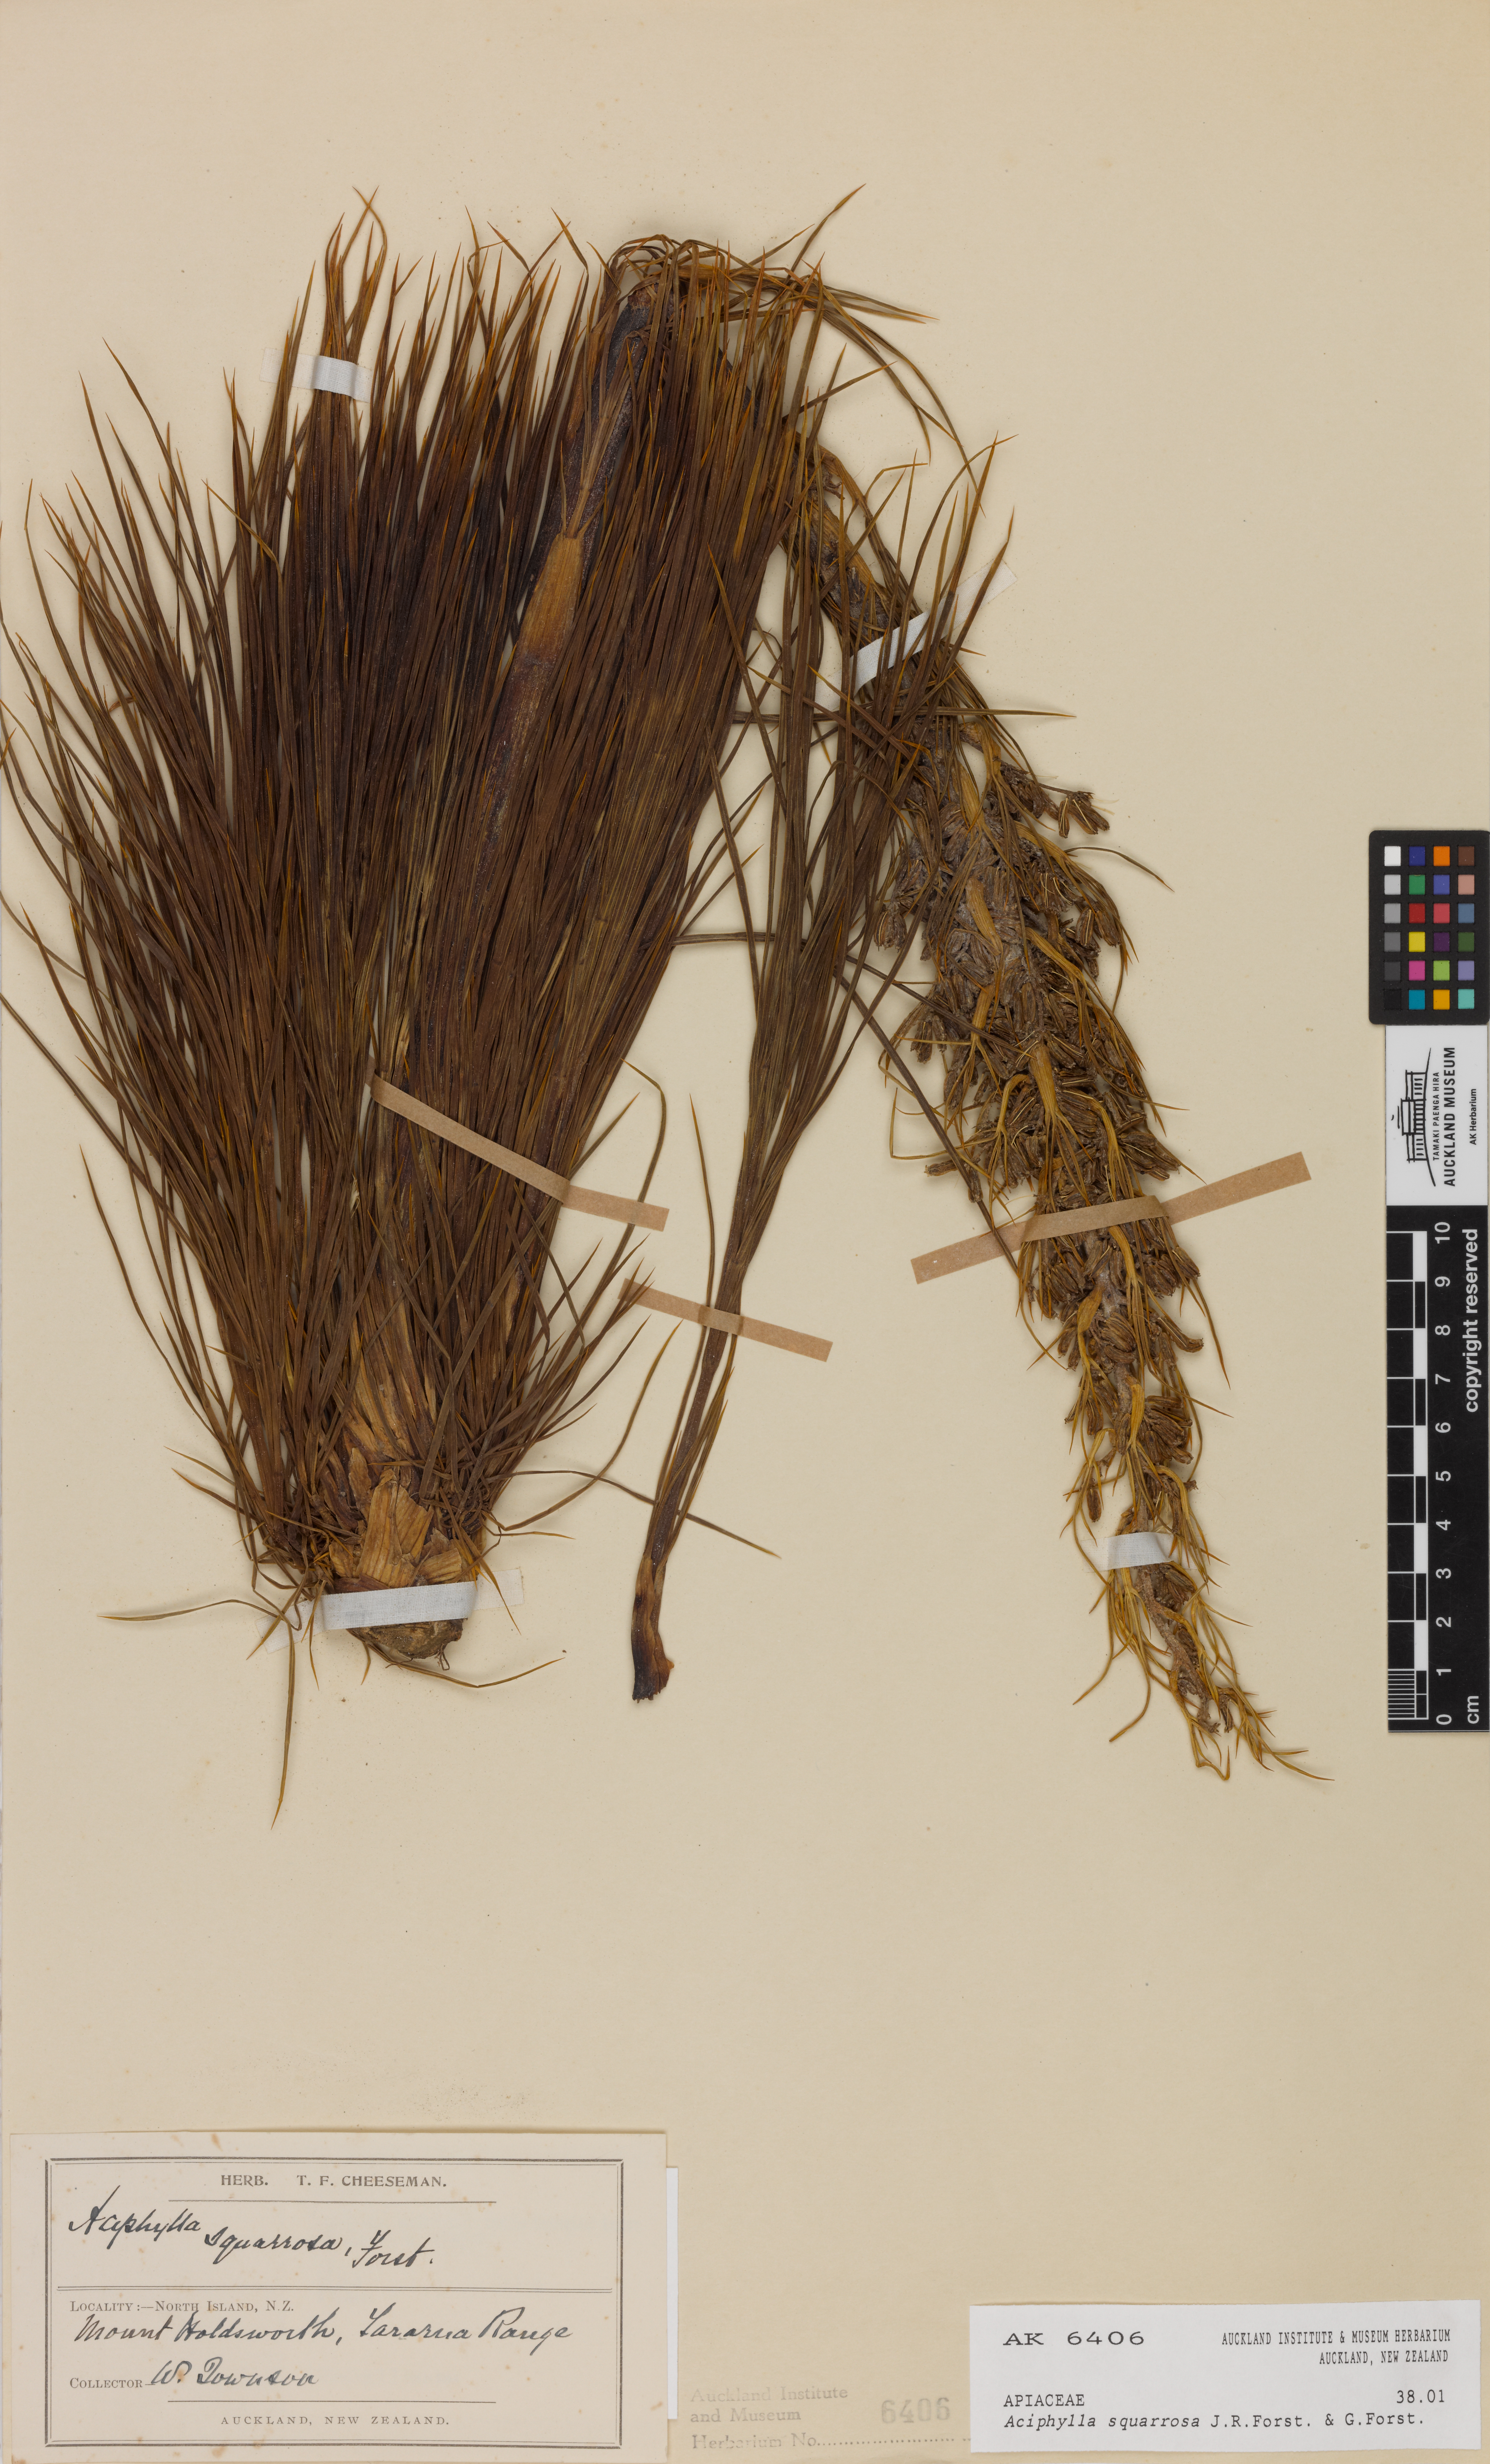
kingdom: Plantae
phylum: Tracheophyta
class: Magnoliopsida
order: Apiales
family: Apiaceae
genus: Aciphylla
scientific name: Aciphylla squarrosa
